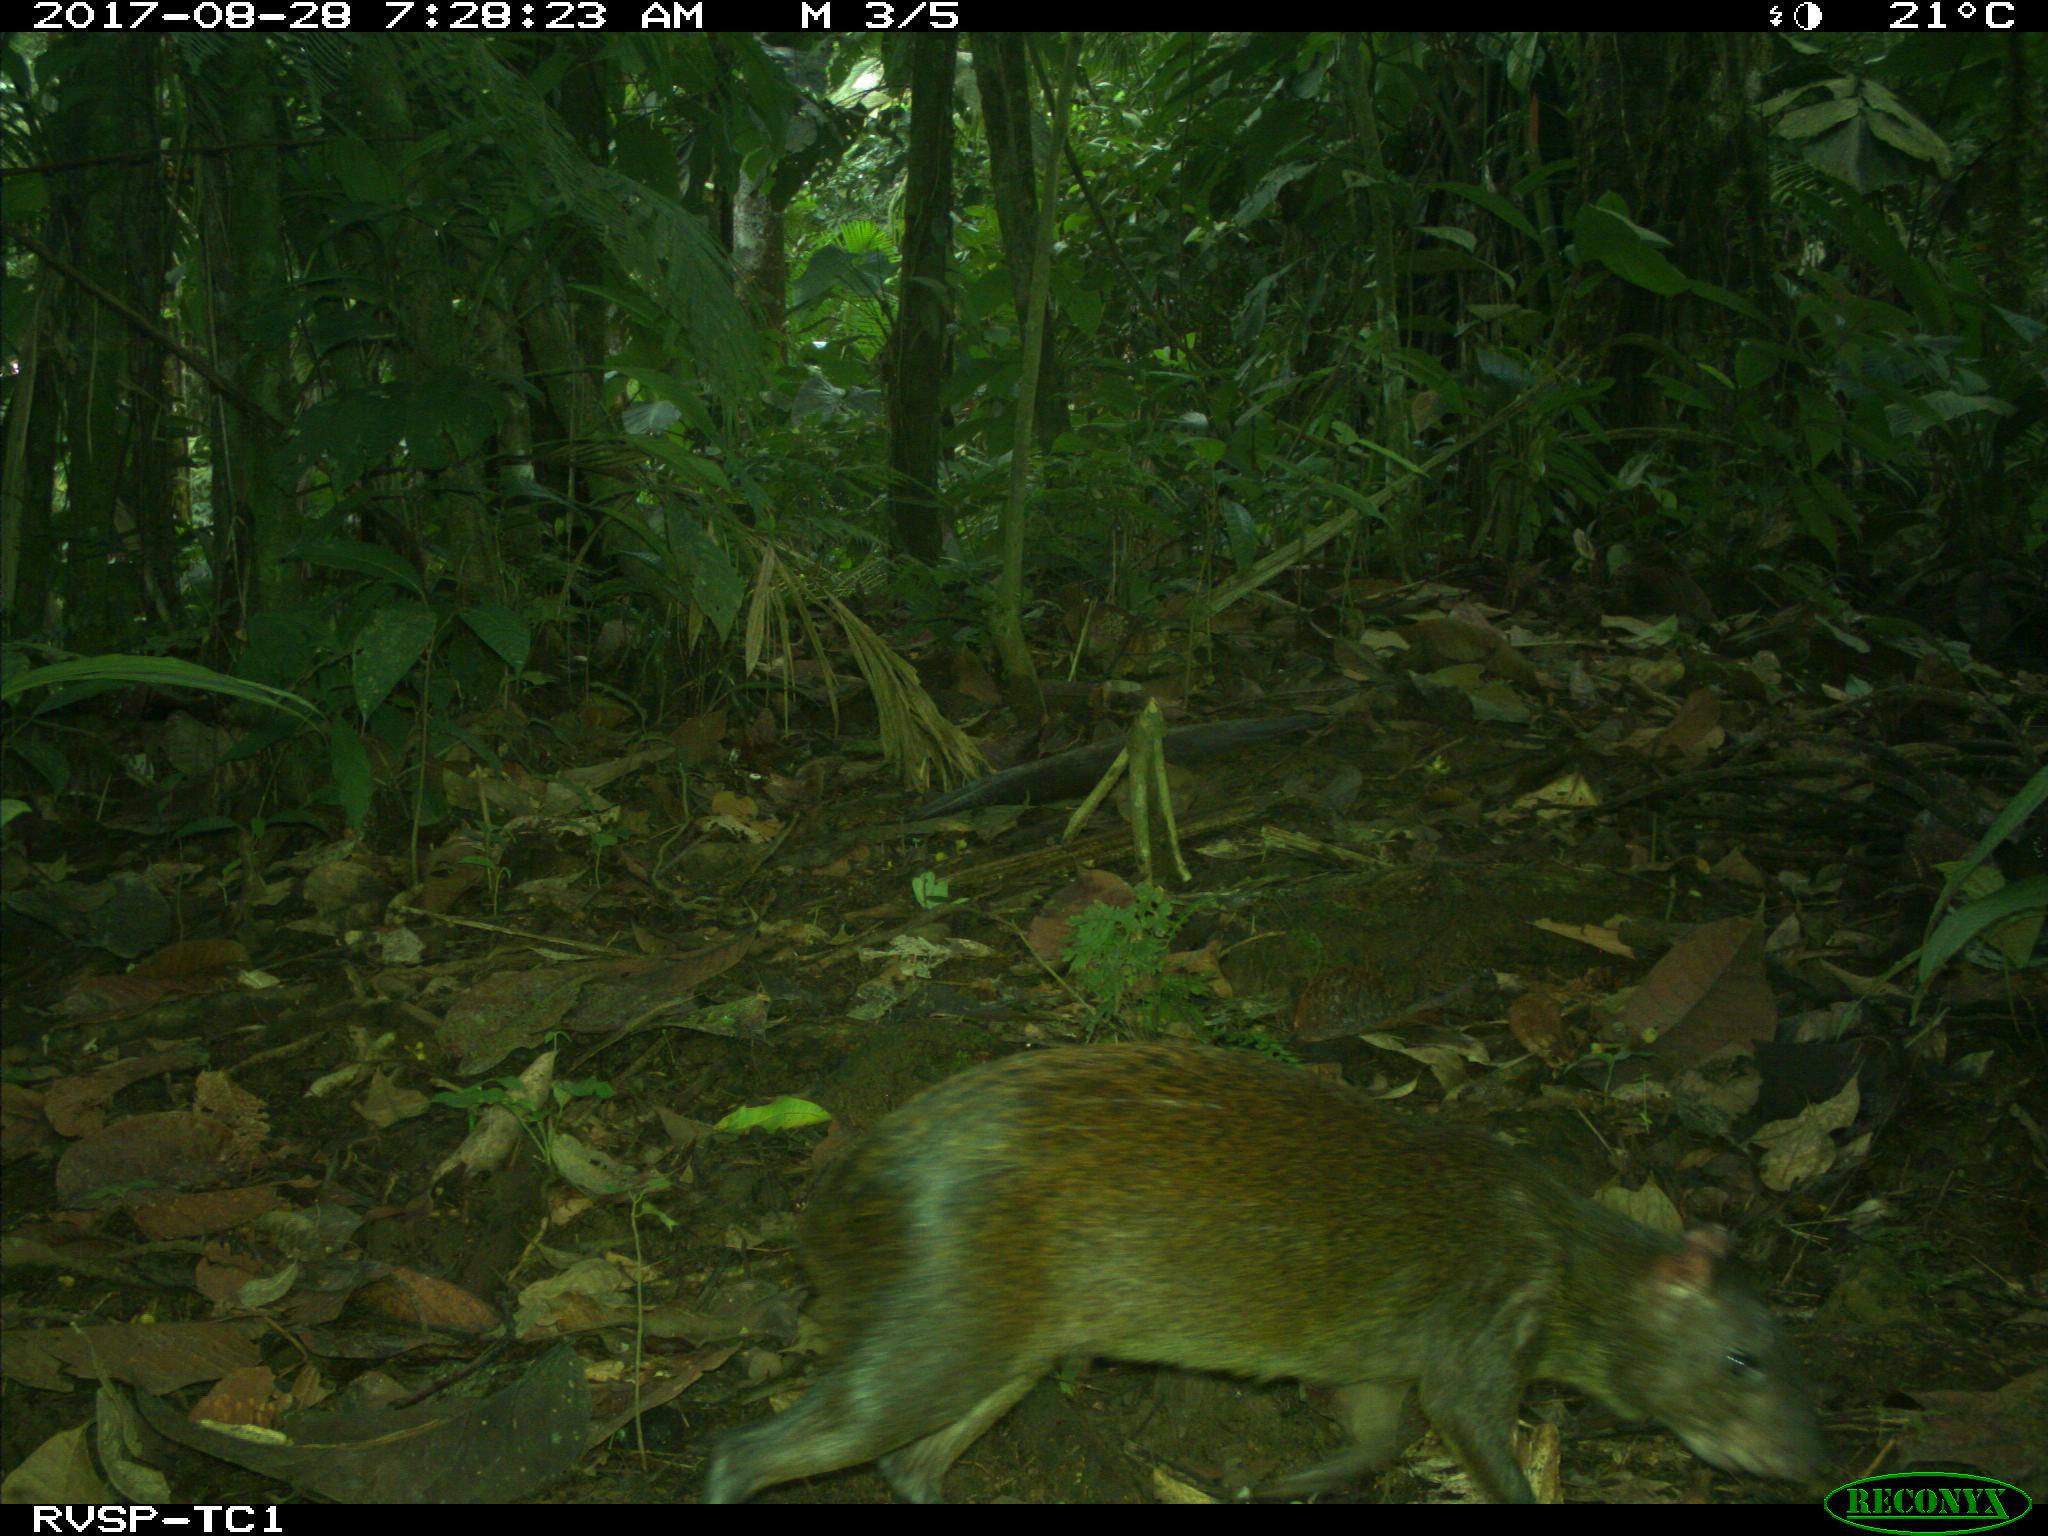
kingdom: Animalia
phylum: Chordata
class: Mammalia
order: Rodentia
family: Dasyproctidae
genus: Dasyprocta
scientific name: Dasyprocta punctata
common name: Central american agouti
